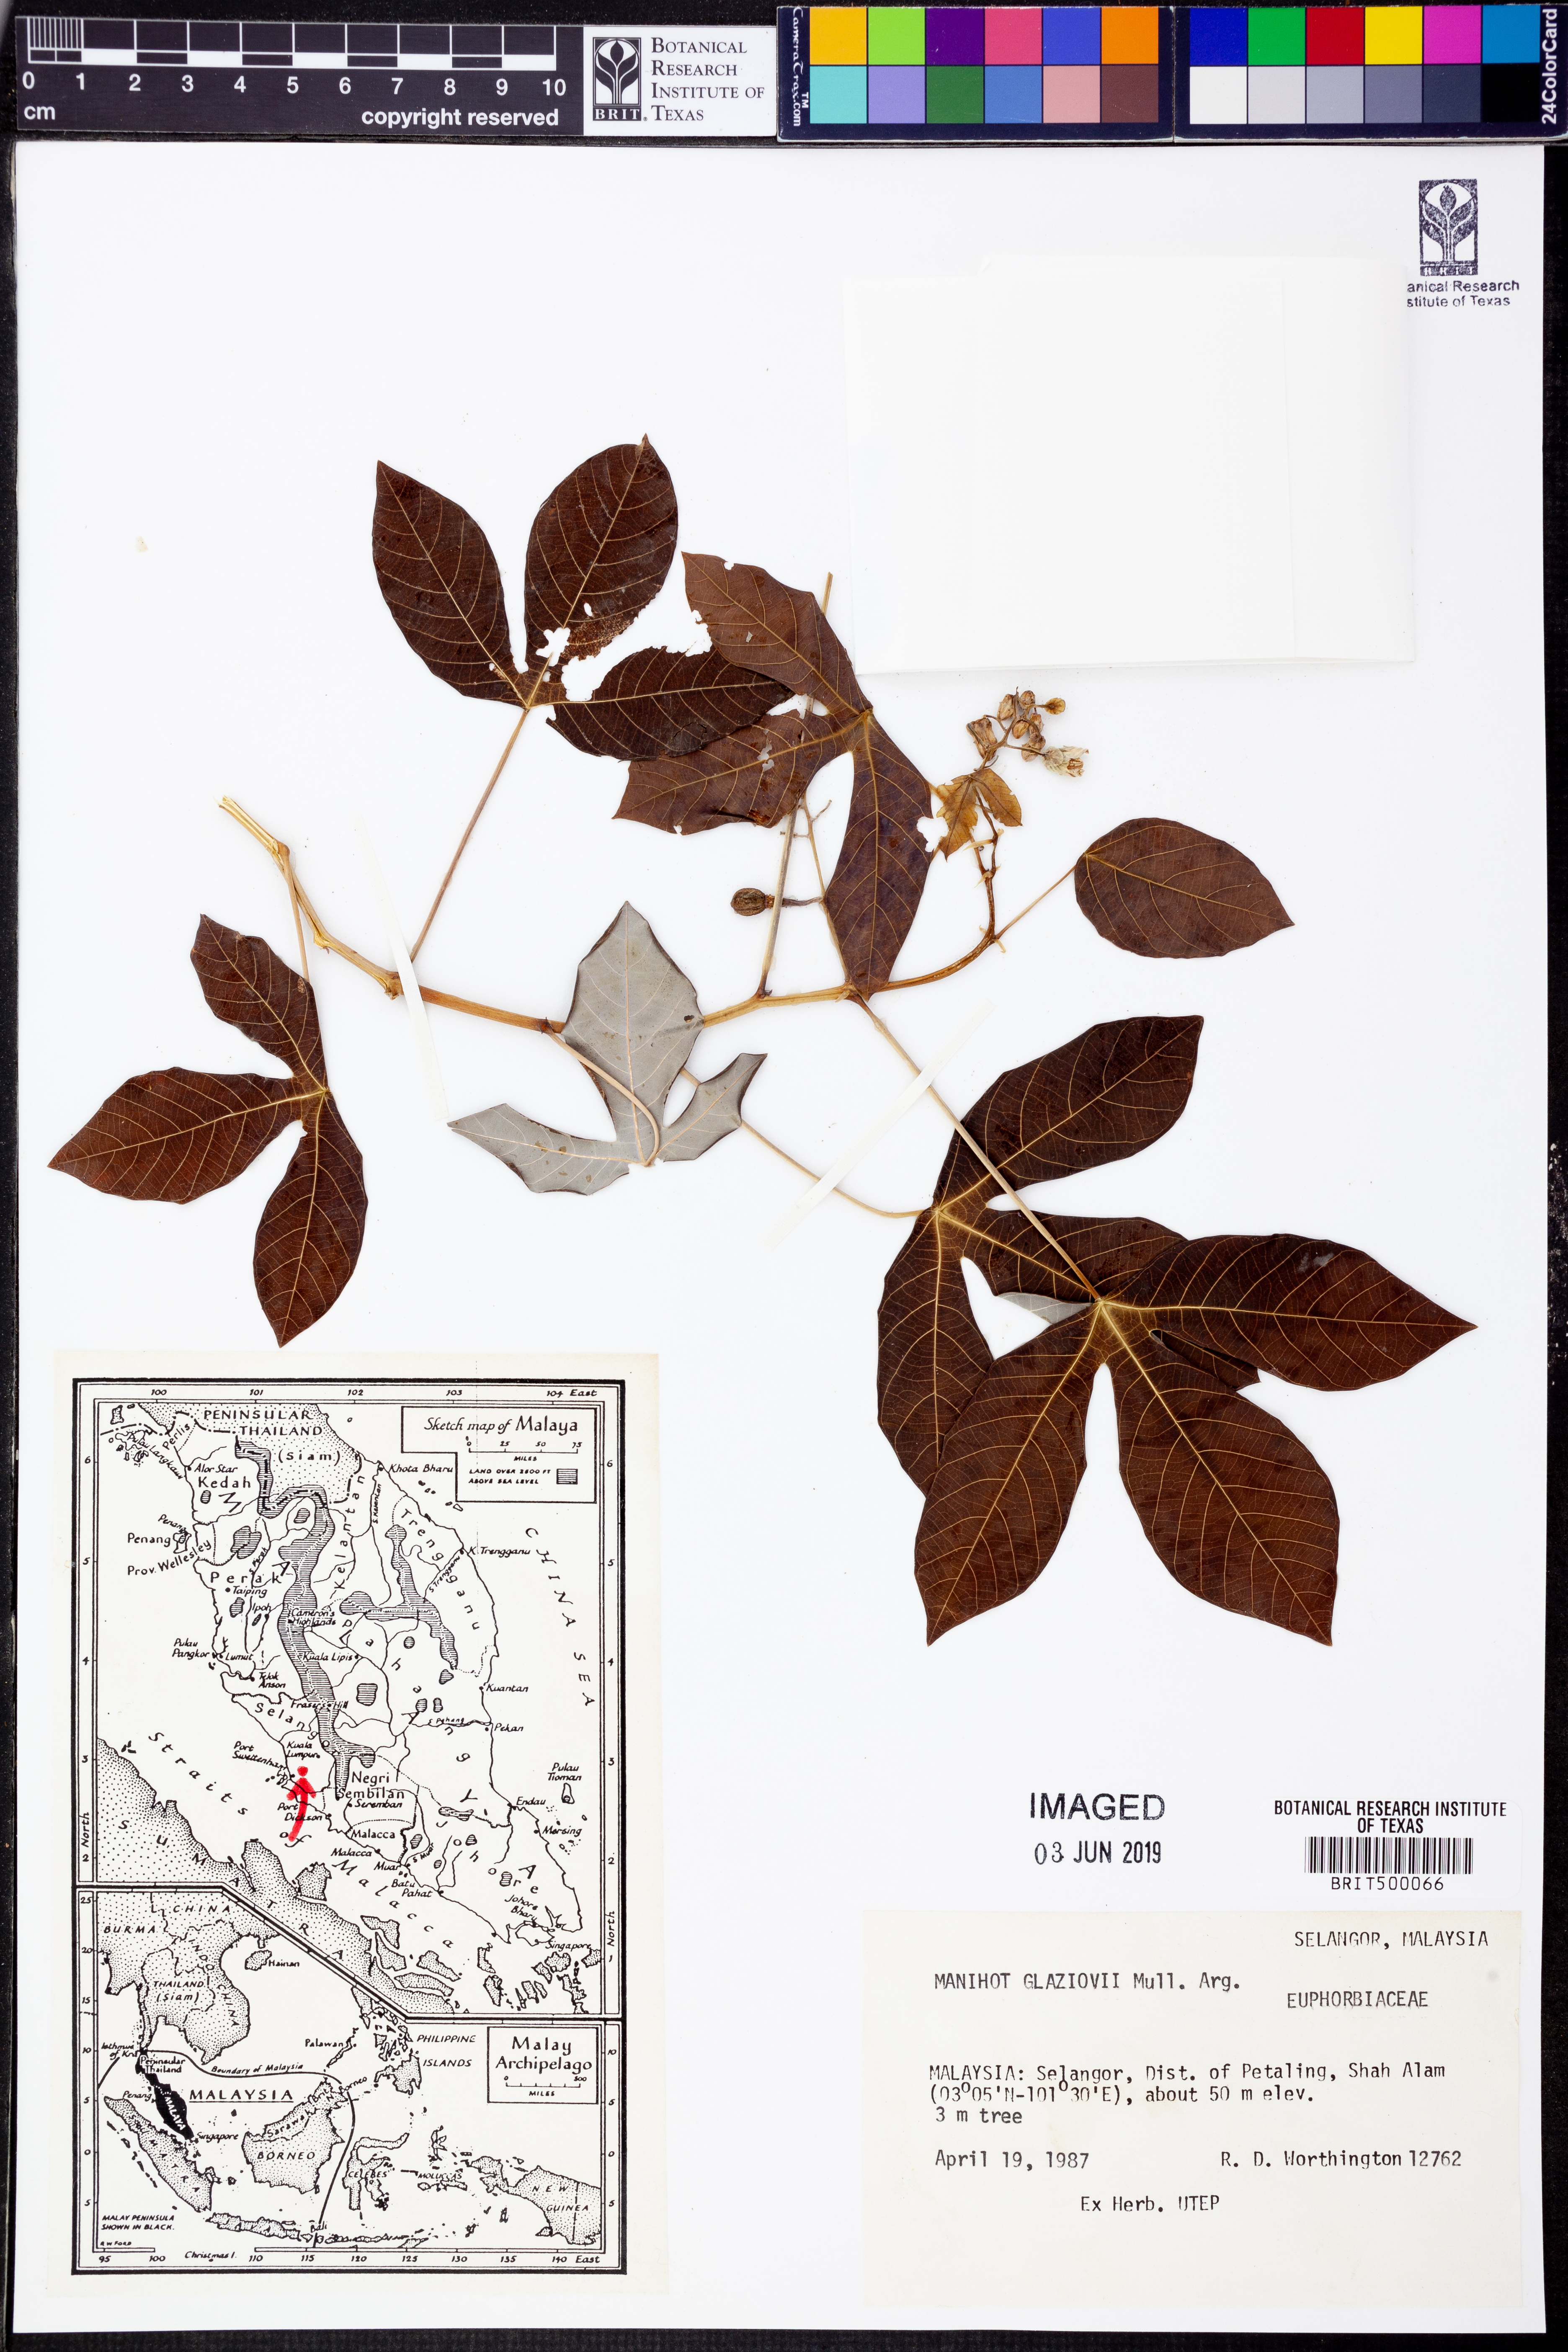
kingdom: Plantae
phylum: Tracheophyta
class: Magnoliopsida
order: Malpighiales
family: Euphorbiaceae
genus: Manihot
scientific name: Manihot carthagenensis
